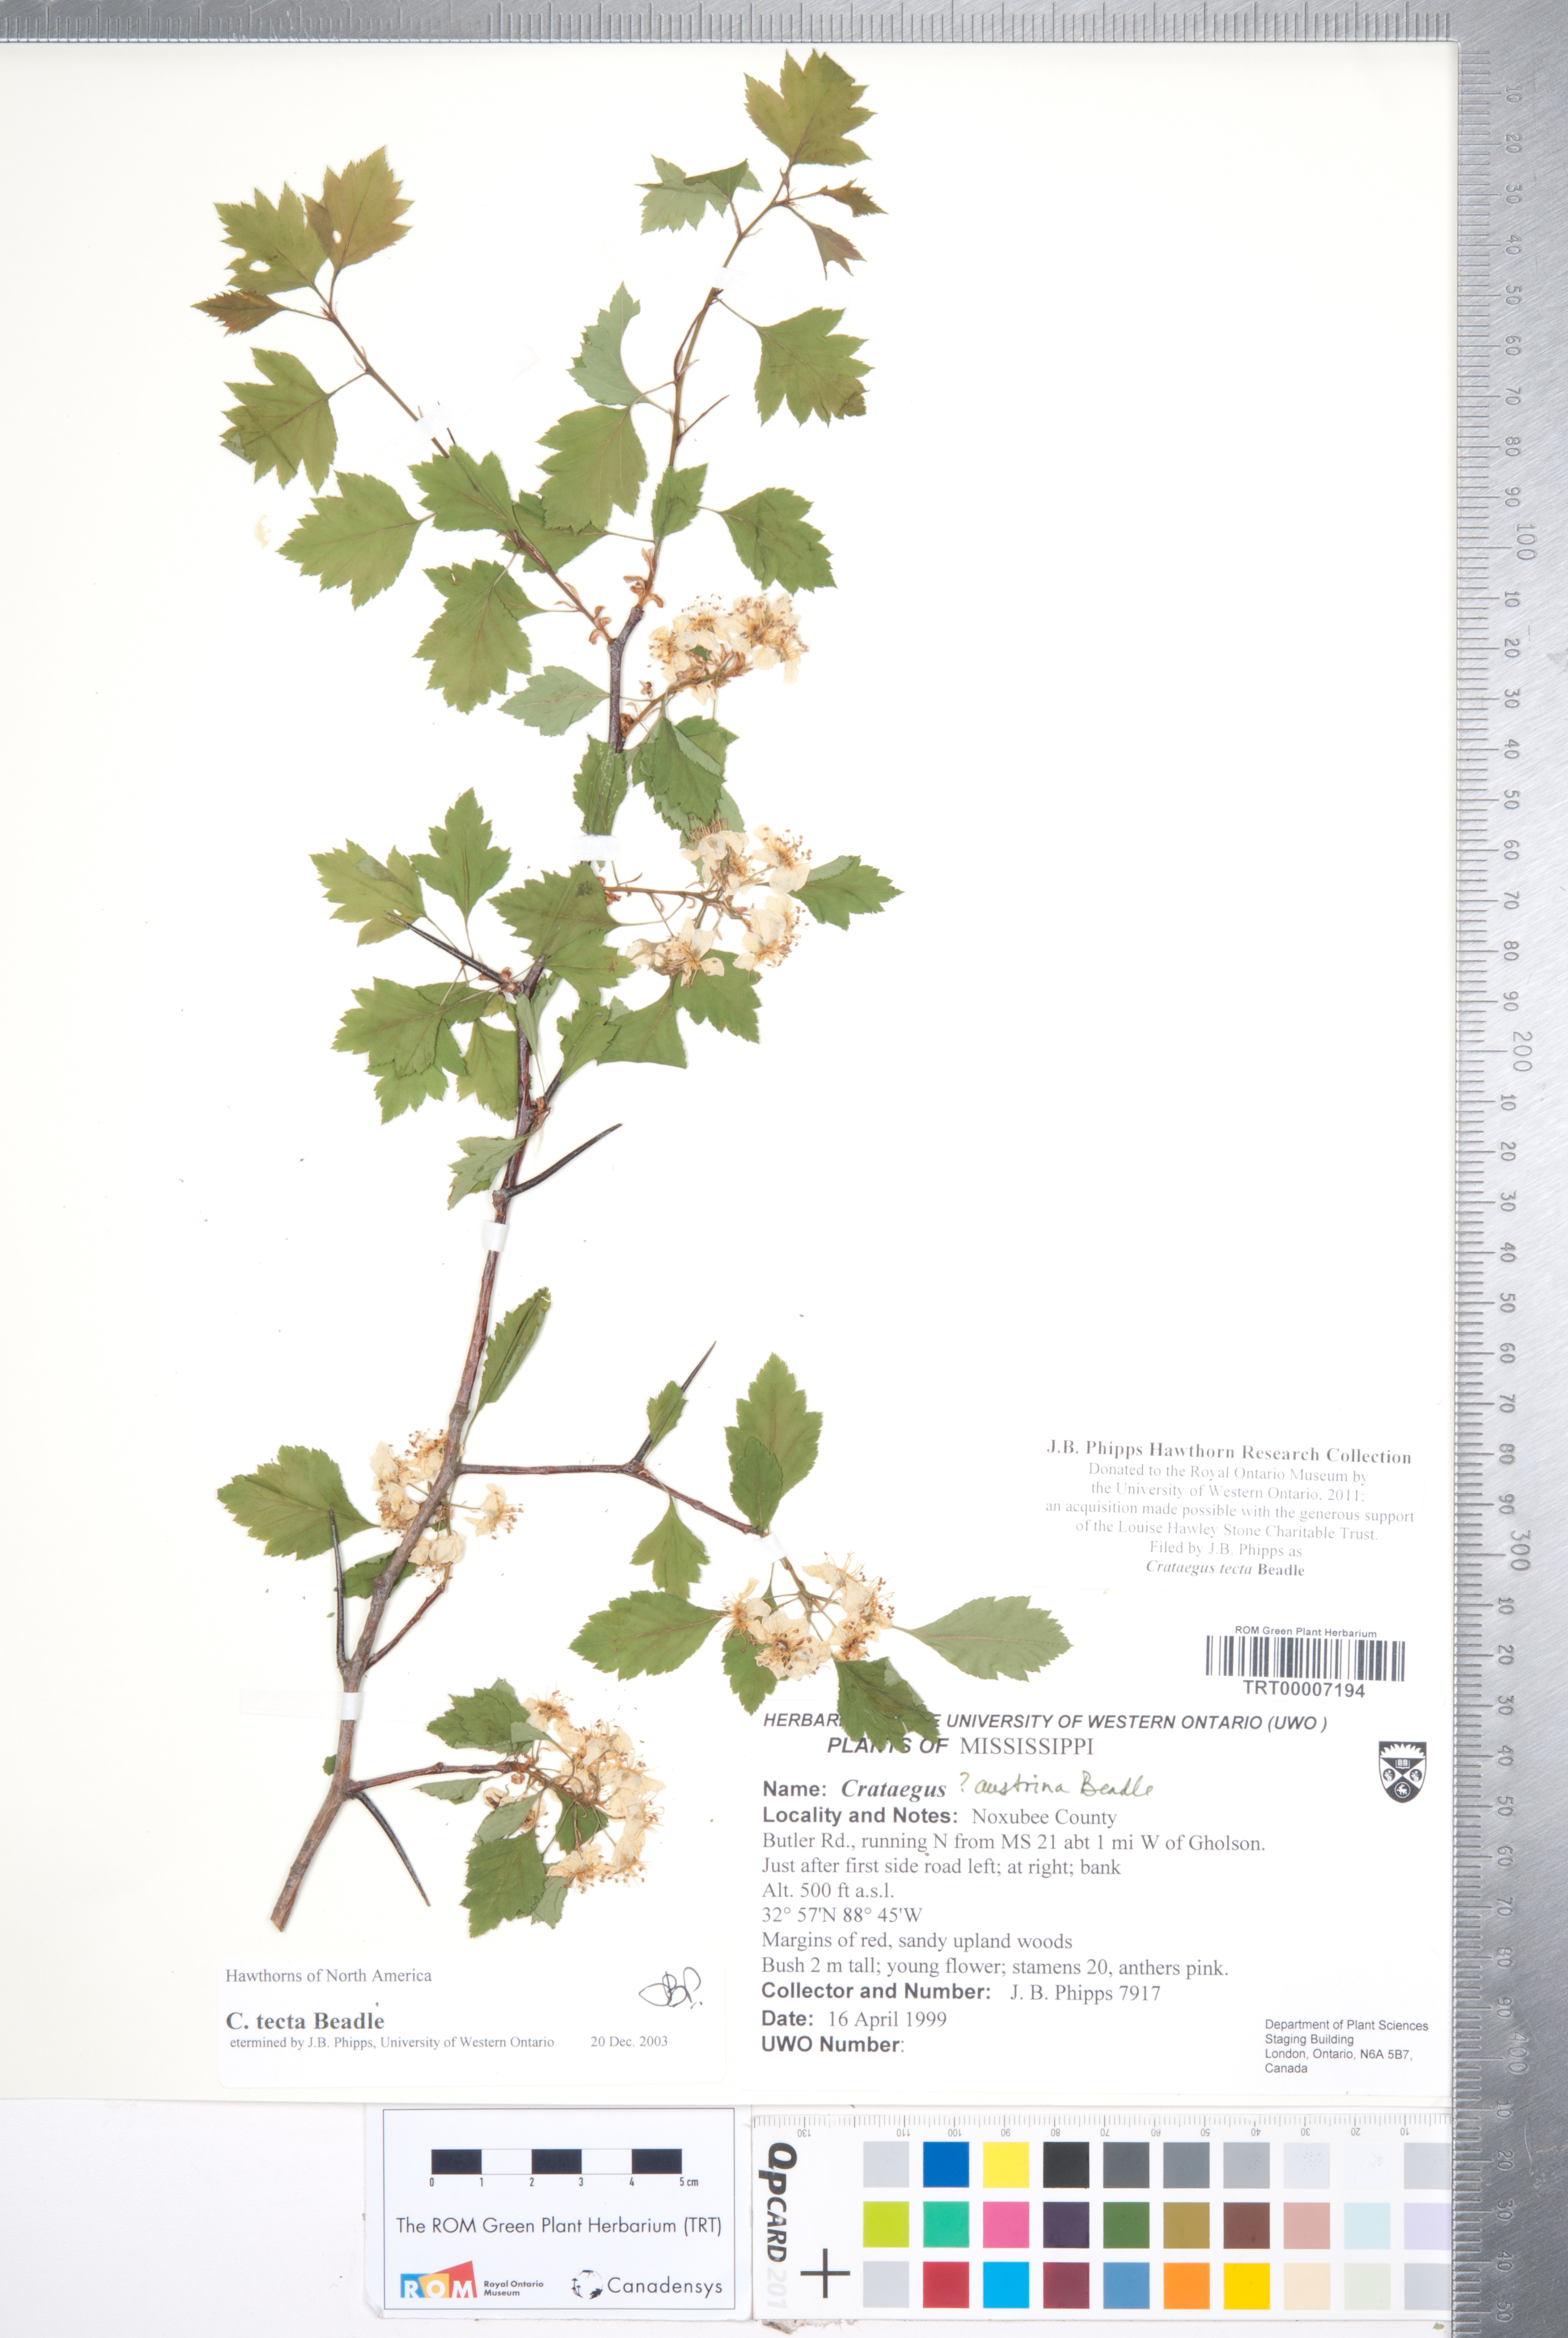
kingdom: Plantae
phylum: Tracheophyta
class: Magnoliopsida
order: Rosales
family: Rosaceae
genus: Crataegus
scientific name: Crataegus pulcherrima
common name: Beautiful hawthorn
